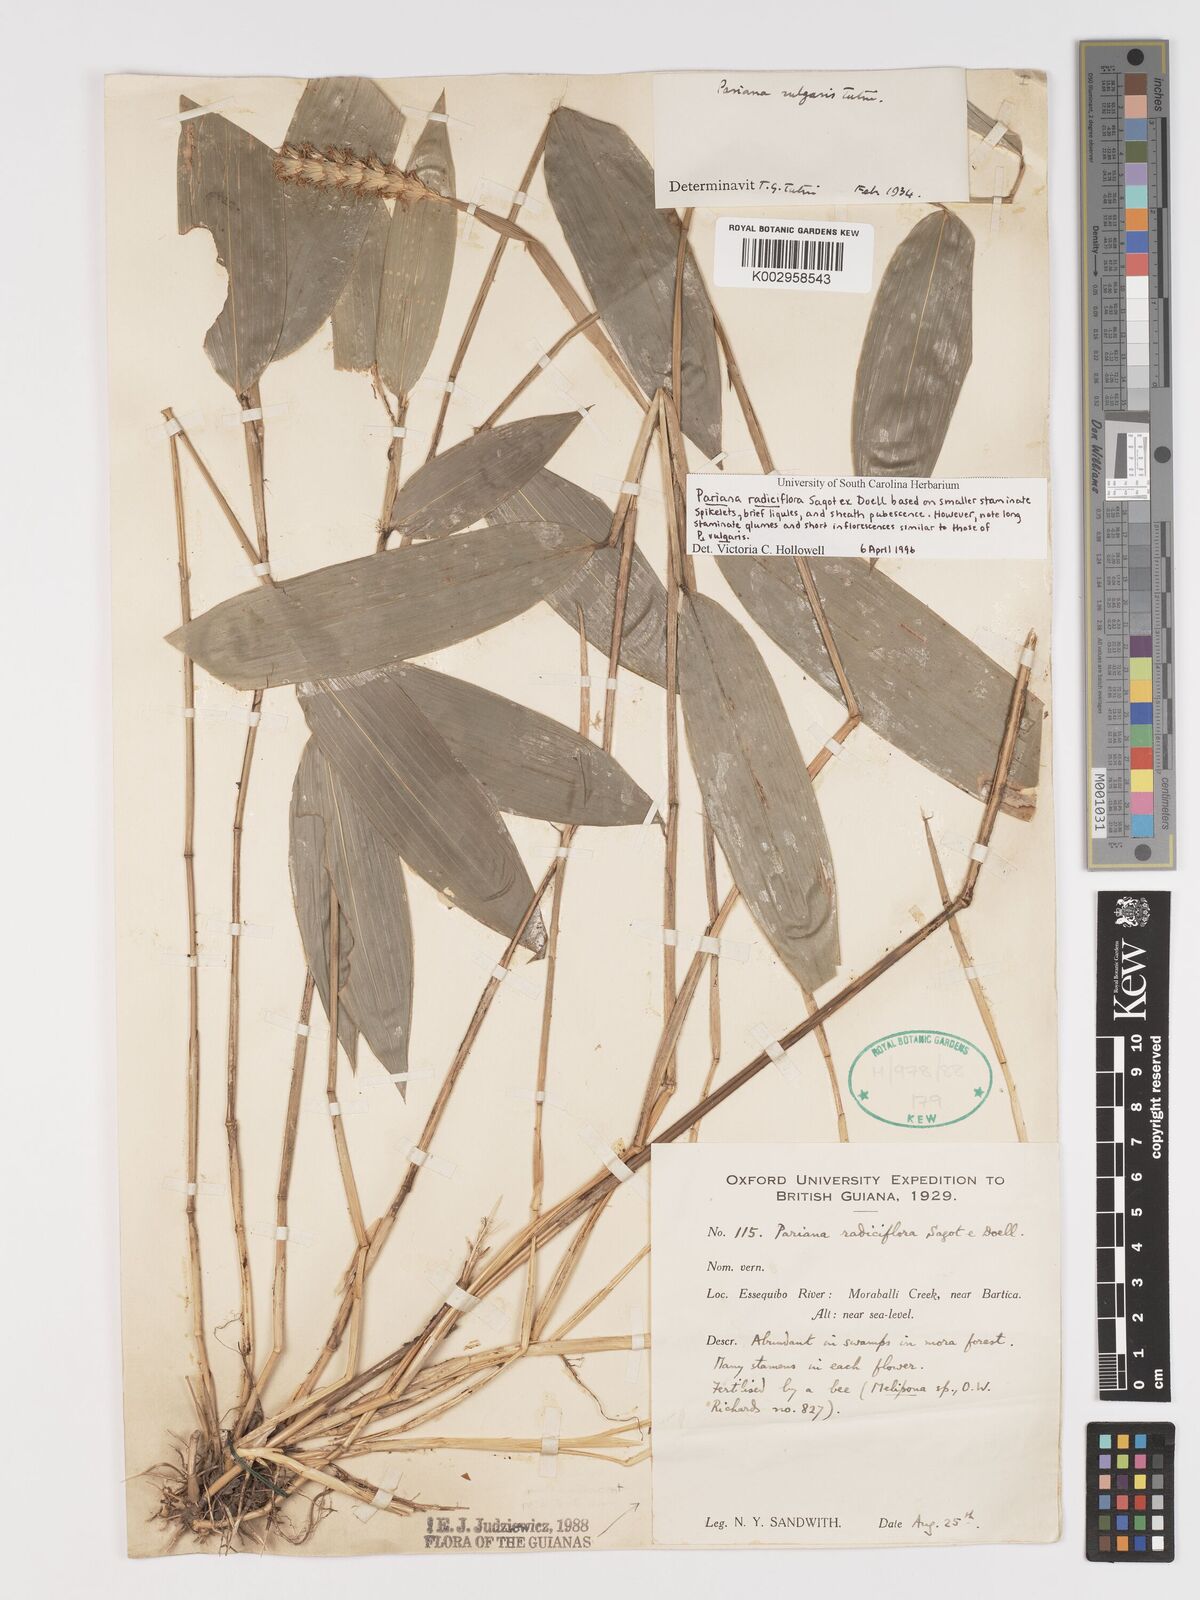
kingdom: Plantae
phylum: Tracheophyta
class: Liliopsida
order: Poales
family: Poaceae
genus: Pariana
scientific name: Pariana radiciflora
